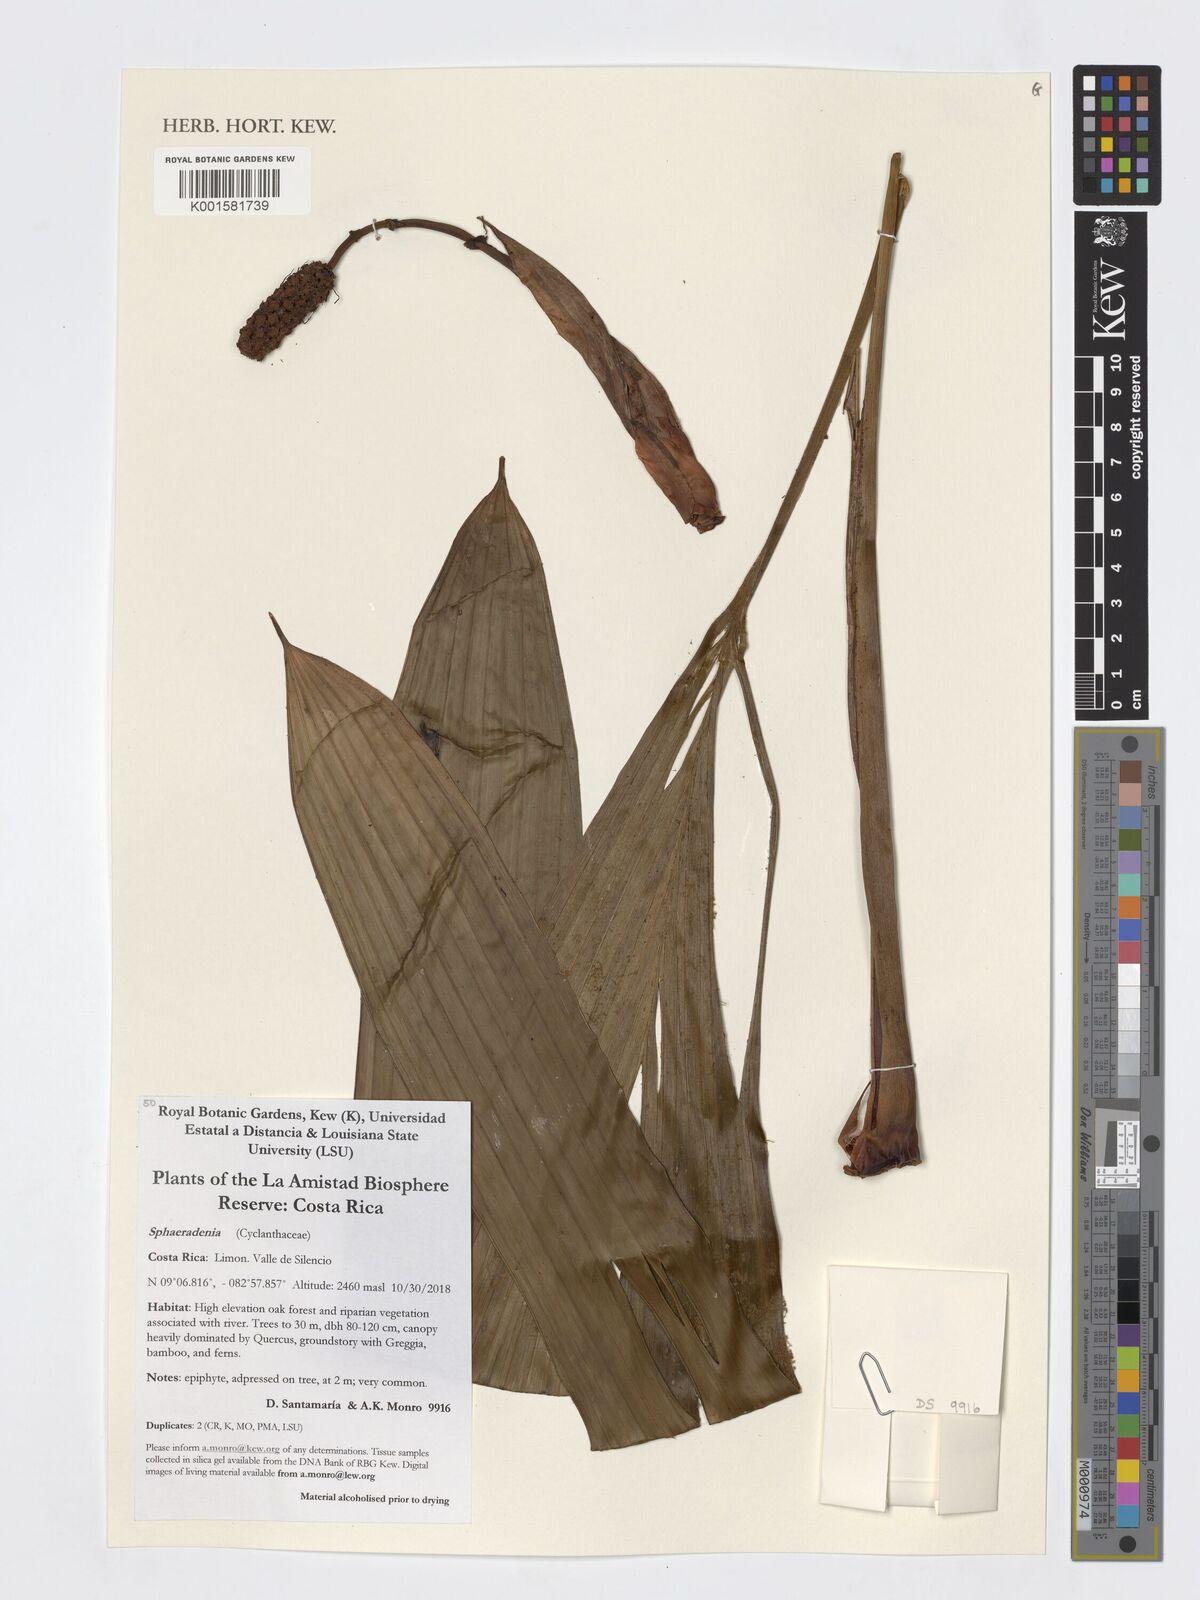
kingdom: Plantae
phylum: Tracheophyta
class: Liliopsida
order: Pandanales
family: Cyclanthaceae
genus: Sphaeradenia
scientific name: Sphaeradenia
